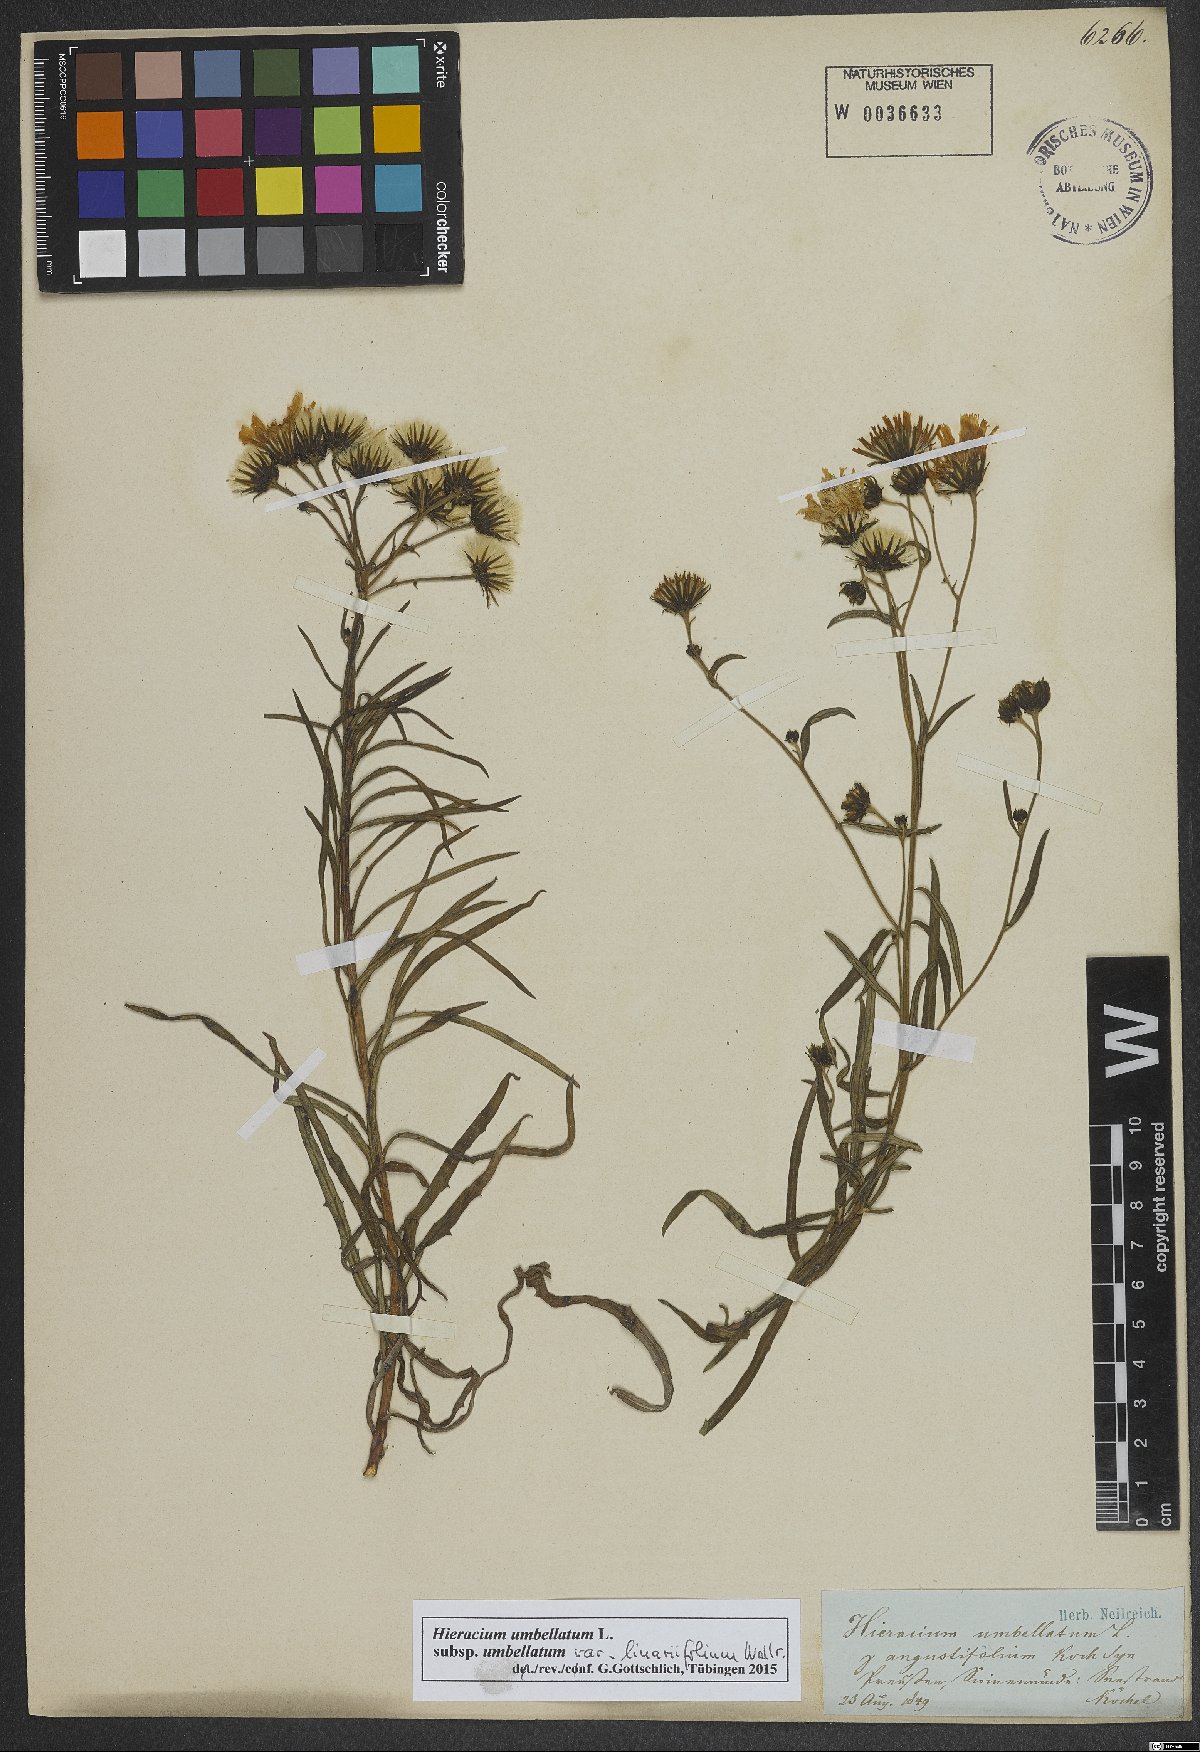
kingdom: Plantae
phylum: Tracheophyta
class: Magnoliopsida
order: Asterales
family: Asteraceae
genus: Hieracium
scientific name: Hieracium umbellatum
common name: Northern hawkweed
